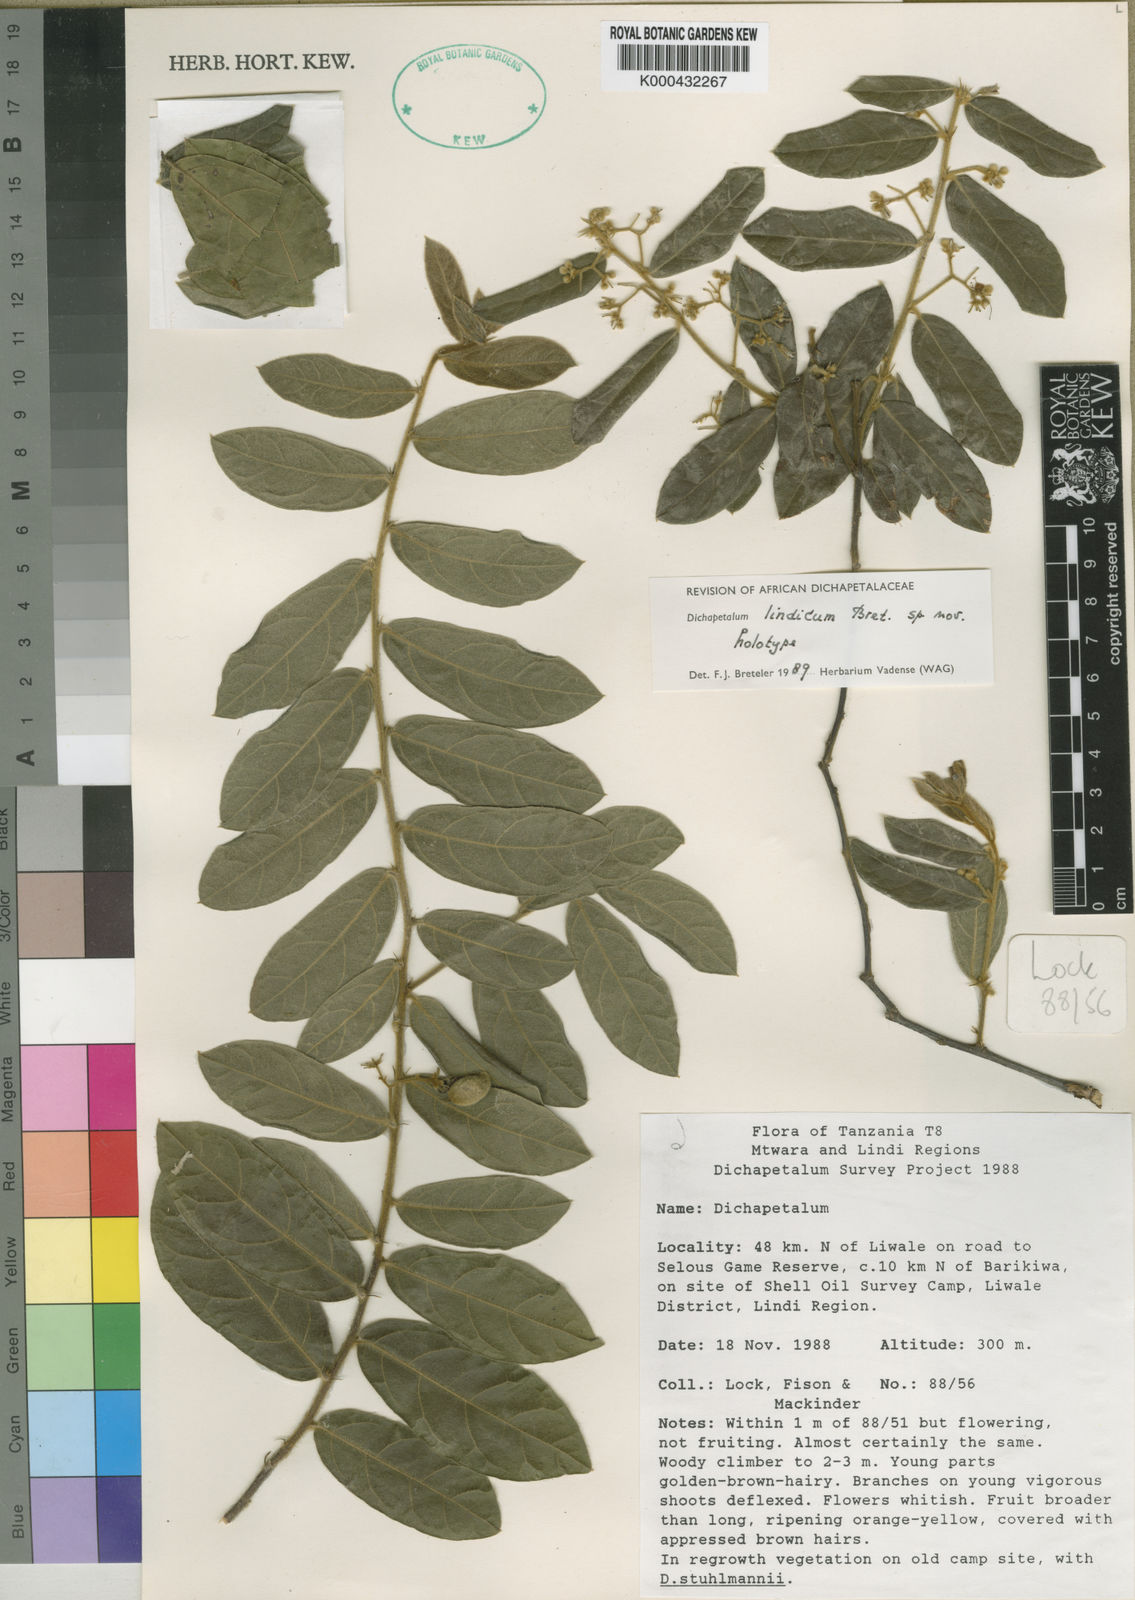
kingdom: Plantae
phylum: Tracheophyta
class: Magnoliopsida
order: Malpighiales
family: Dichapetalaceae
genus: Dichapetalum
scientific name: Dichapetalum lindicum
